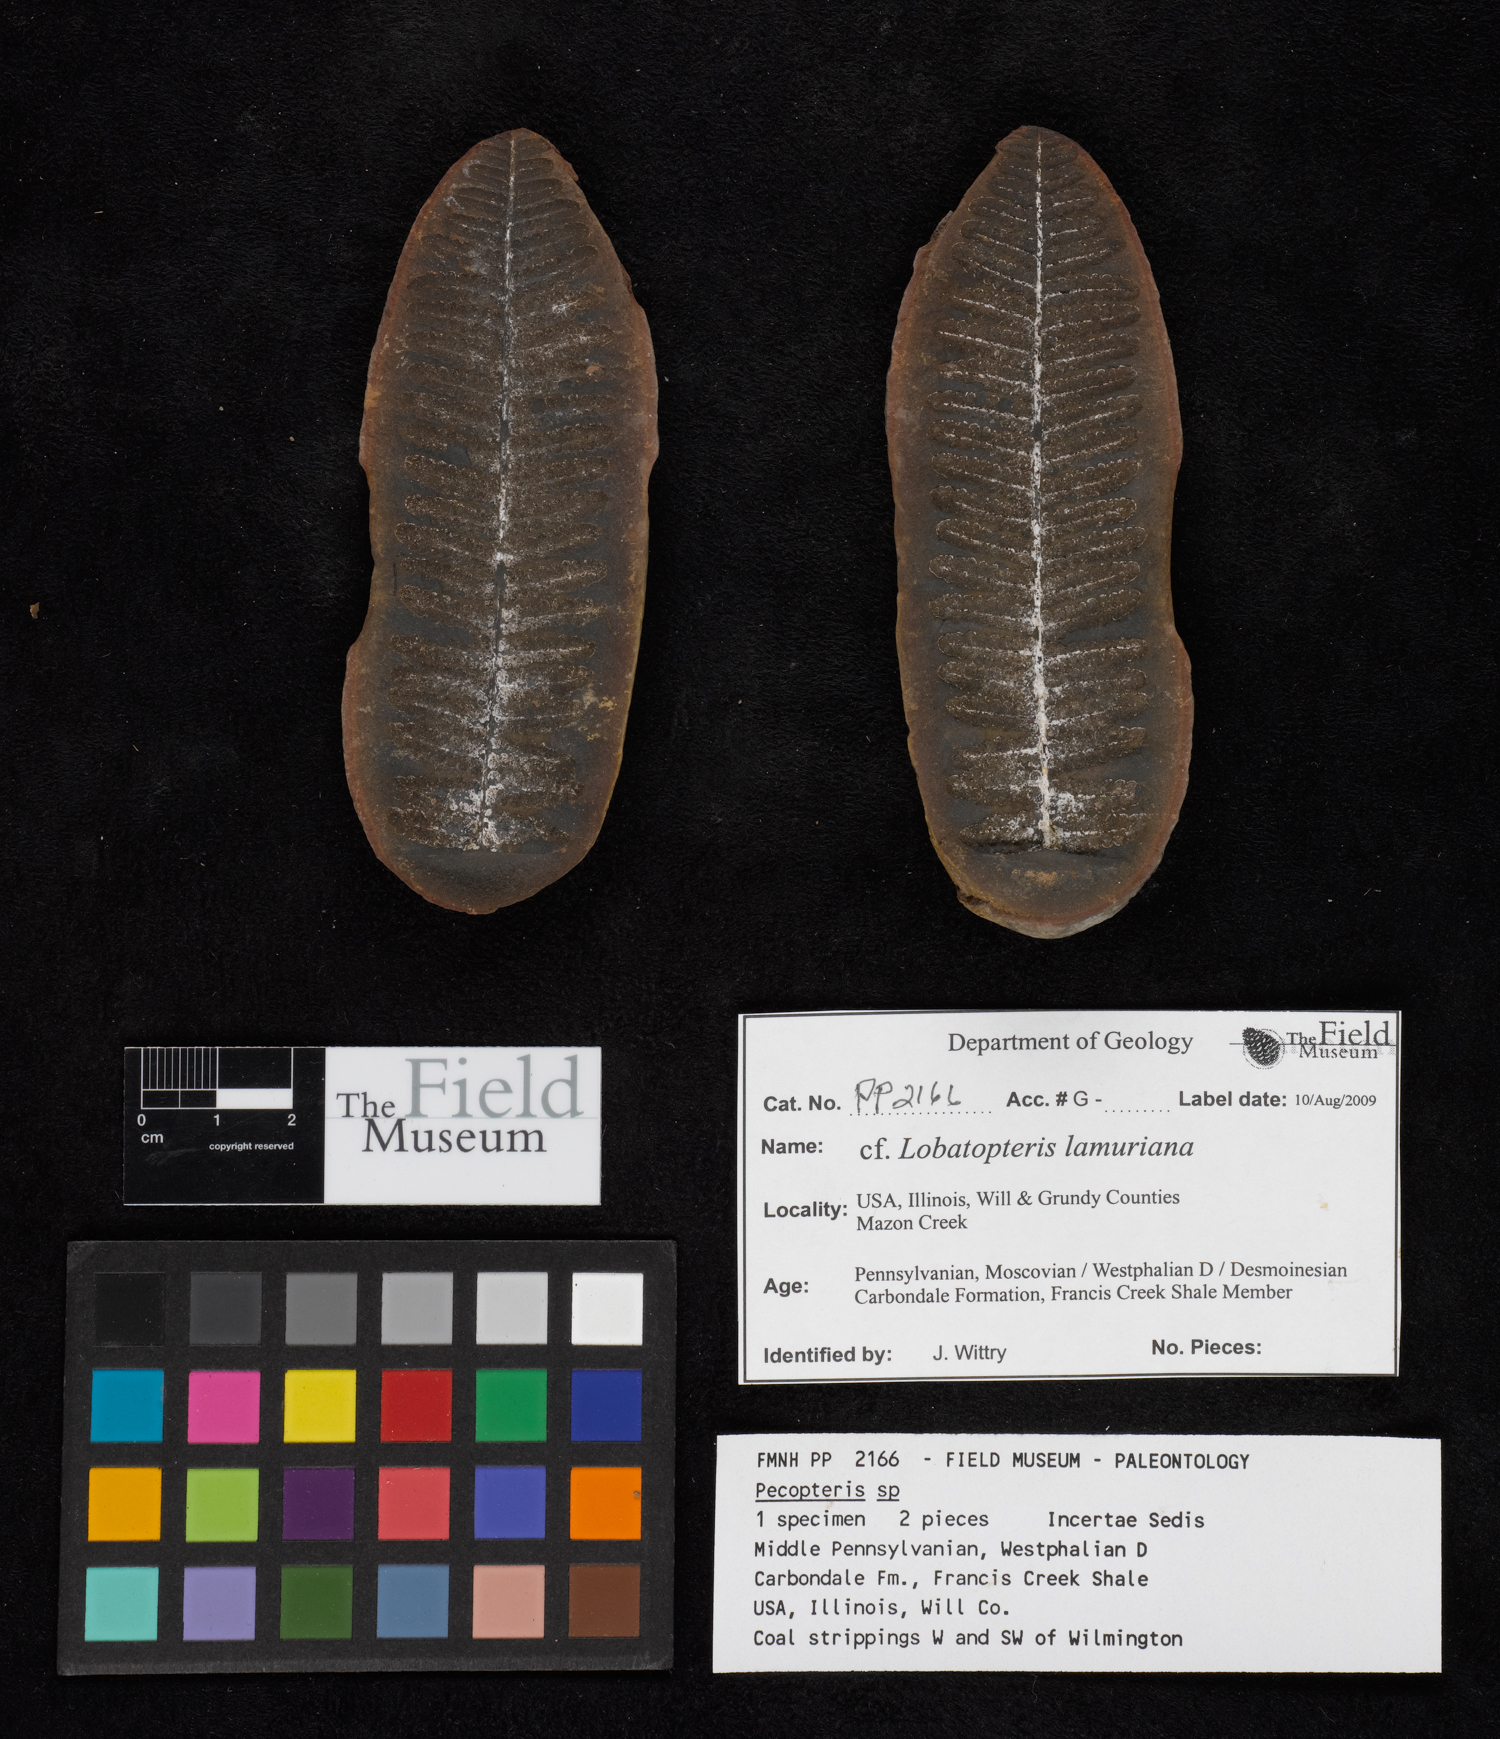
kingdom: Plantae
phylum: Tracheophyta
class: Polypodiopsida
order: Marattiales
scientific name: Marattiales
